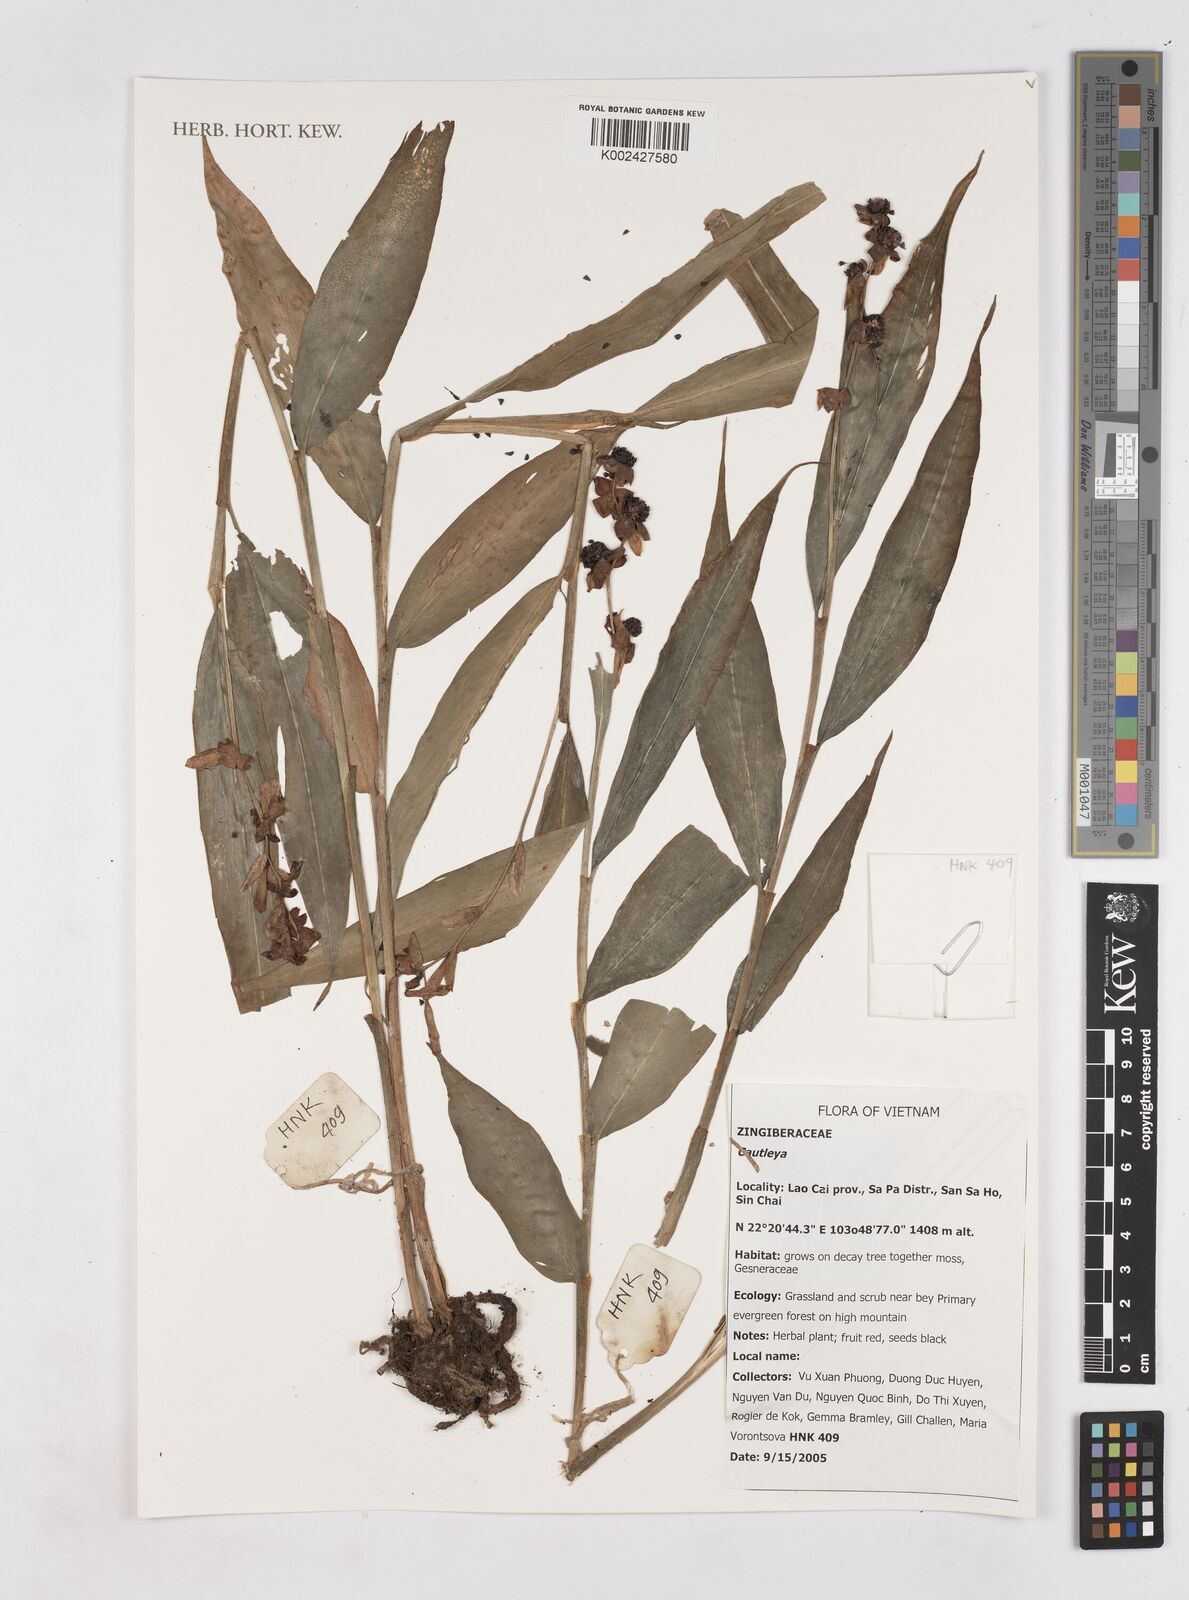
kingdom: Plantae
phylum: Tracheophyta
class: Liliopsida
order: Zingiberales
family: Zingiberaceae
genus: Cautleya
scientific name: Cautleya
